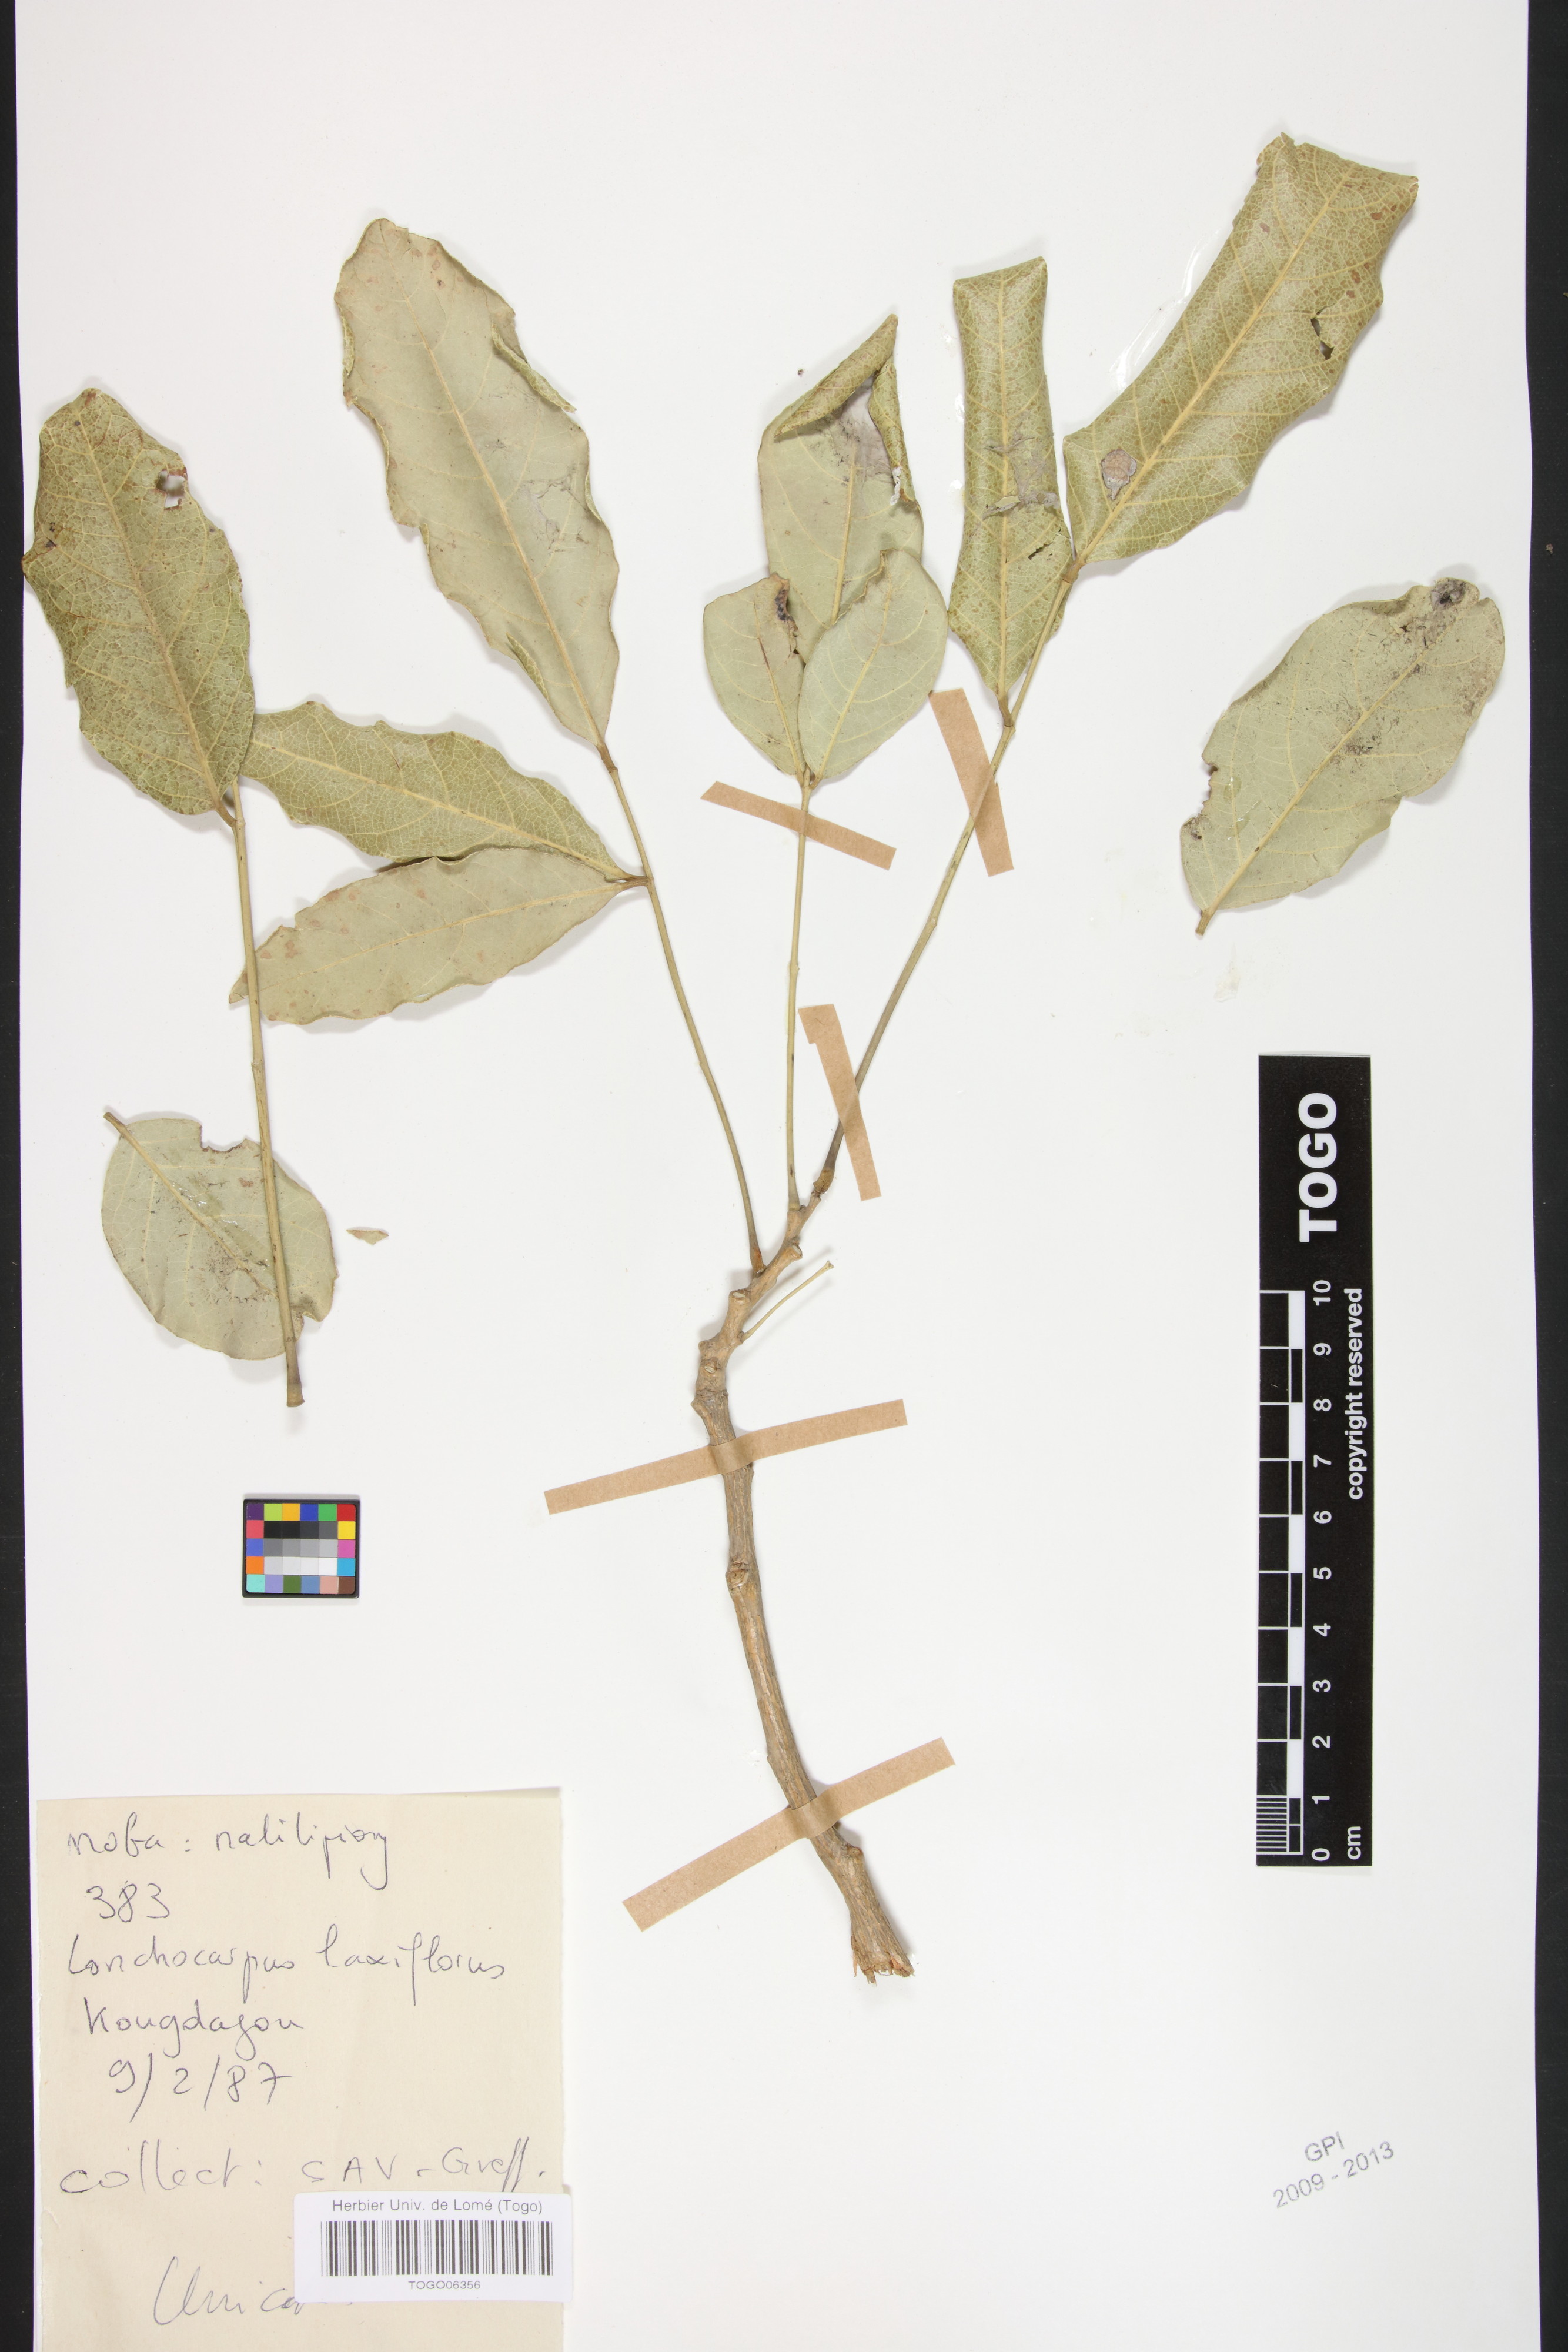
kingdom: Plantae
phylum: Tracheophyta
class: Magnoliopsida
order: Fabales
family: Fabaceae
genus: Philenoptera
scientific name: Philenoptera laxiflora
